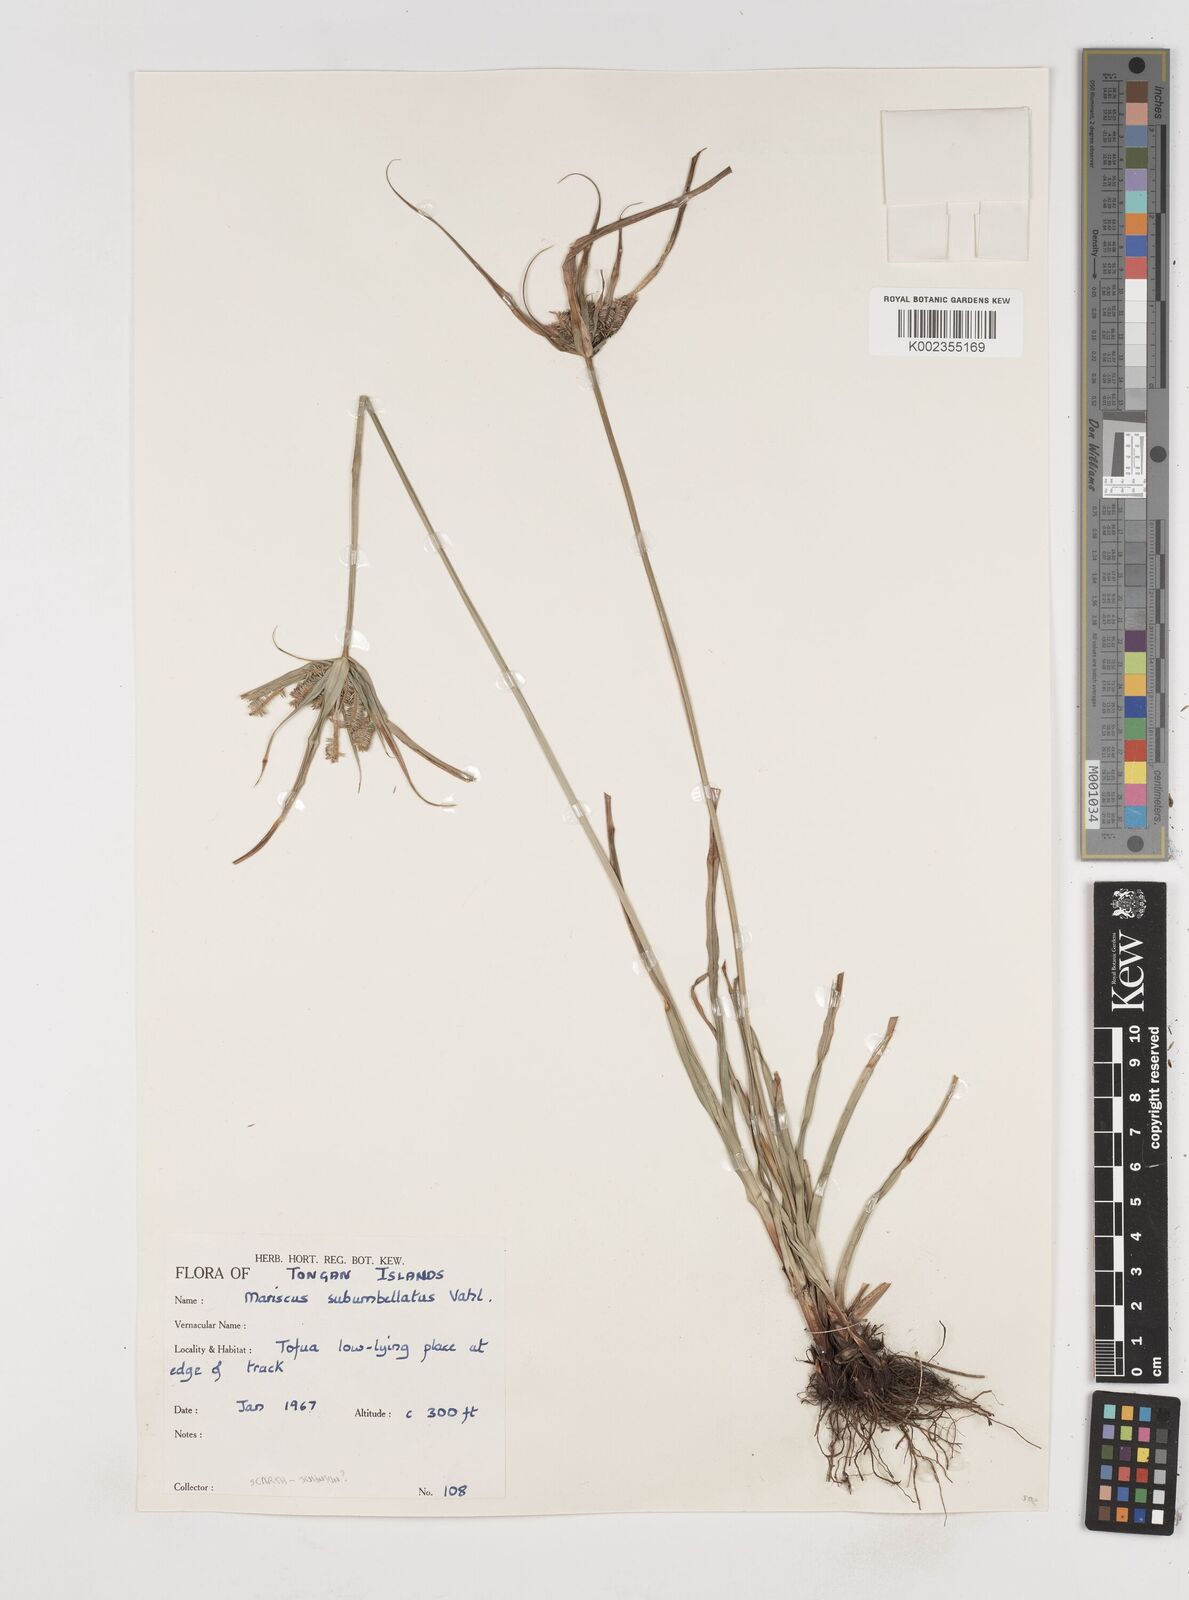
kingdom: Plantae
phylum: Tracheophyta
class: Liliopsida
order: Poales
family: Cyperaceae
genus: Cyperus
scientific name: Cyperus cyperoides
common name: Pacific island flat sedge
